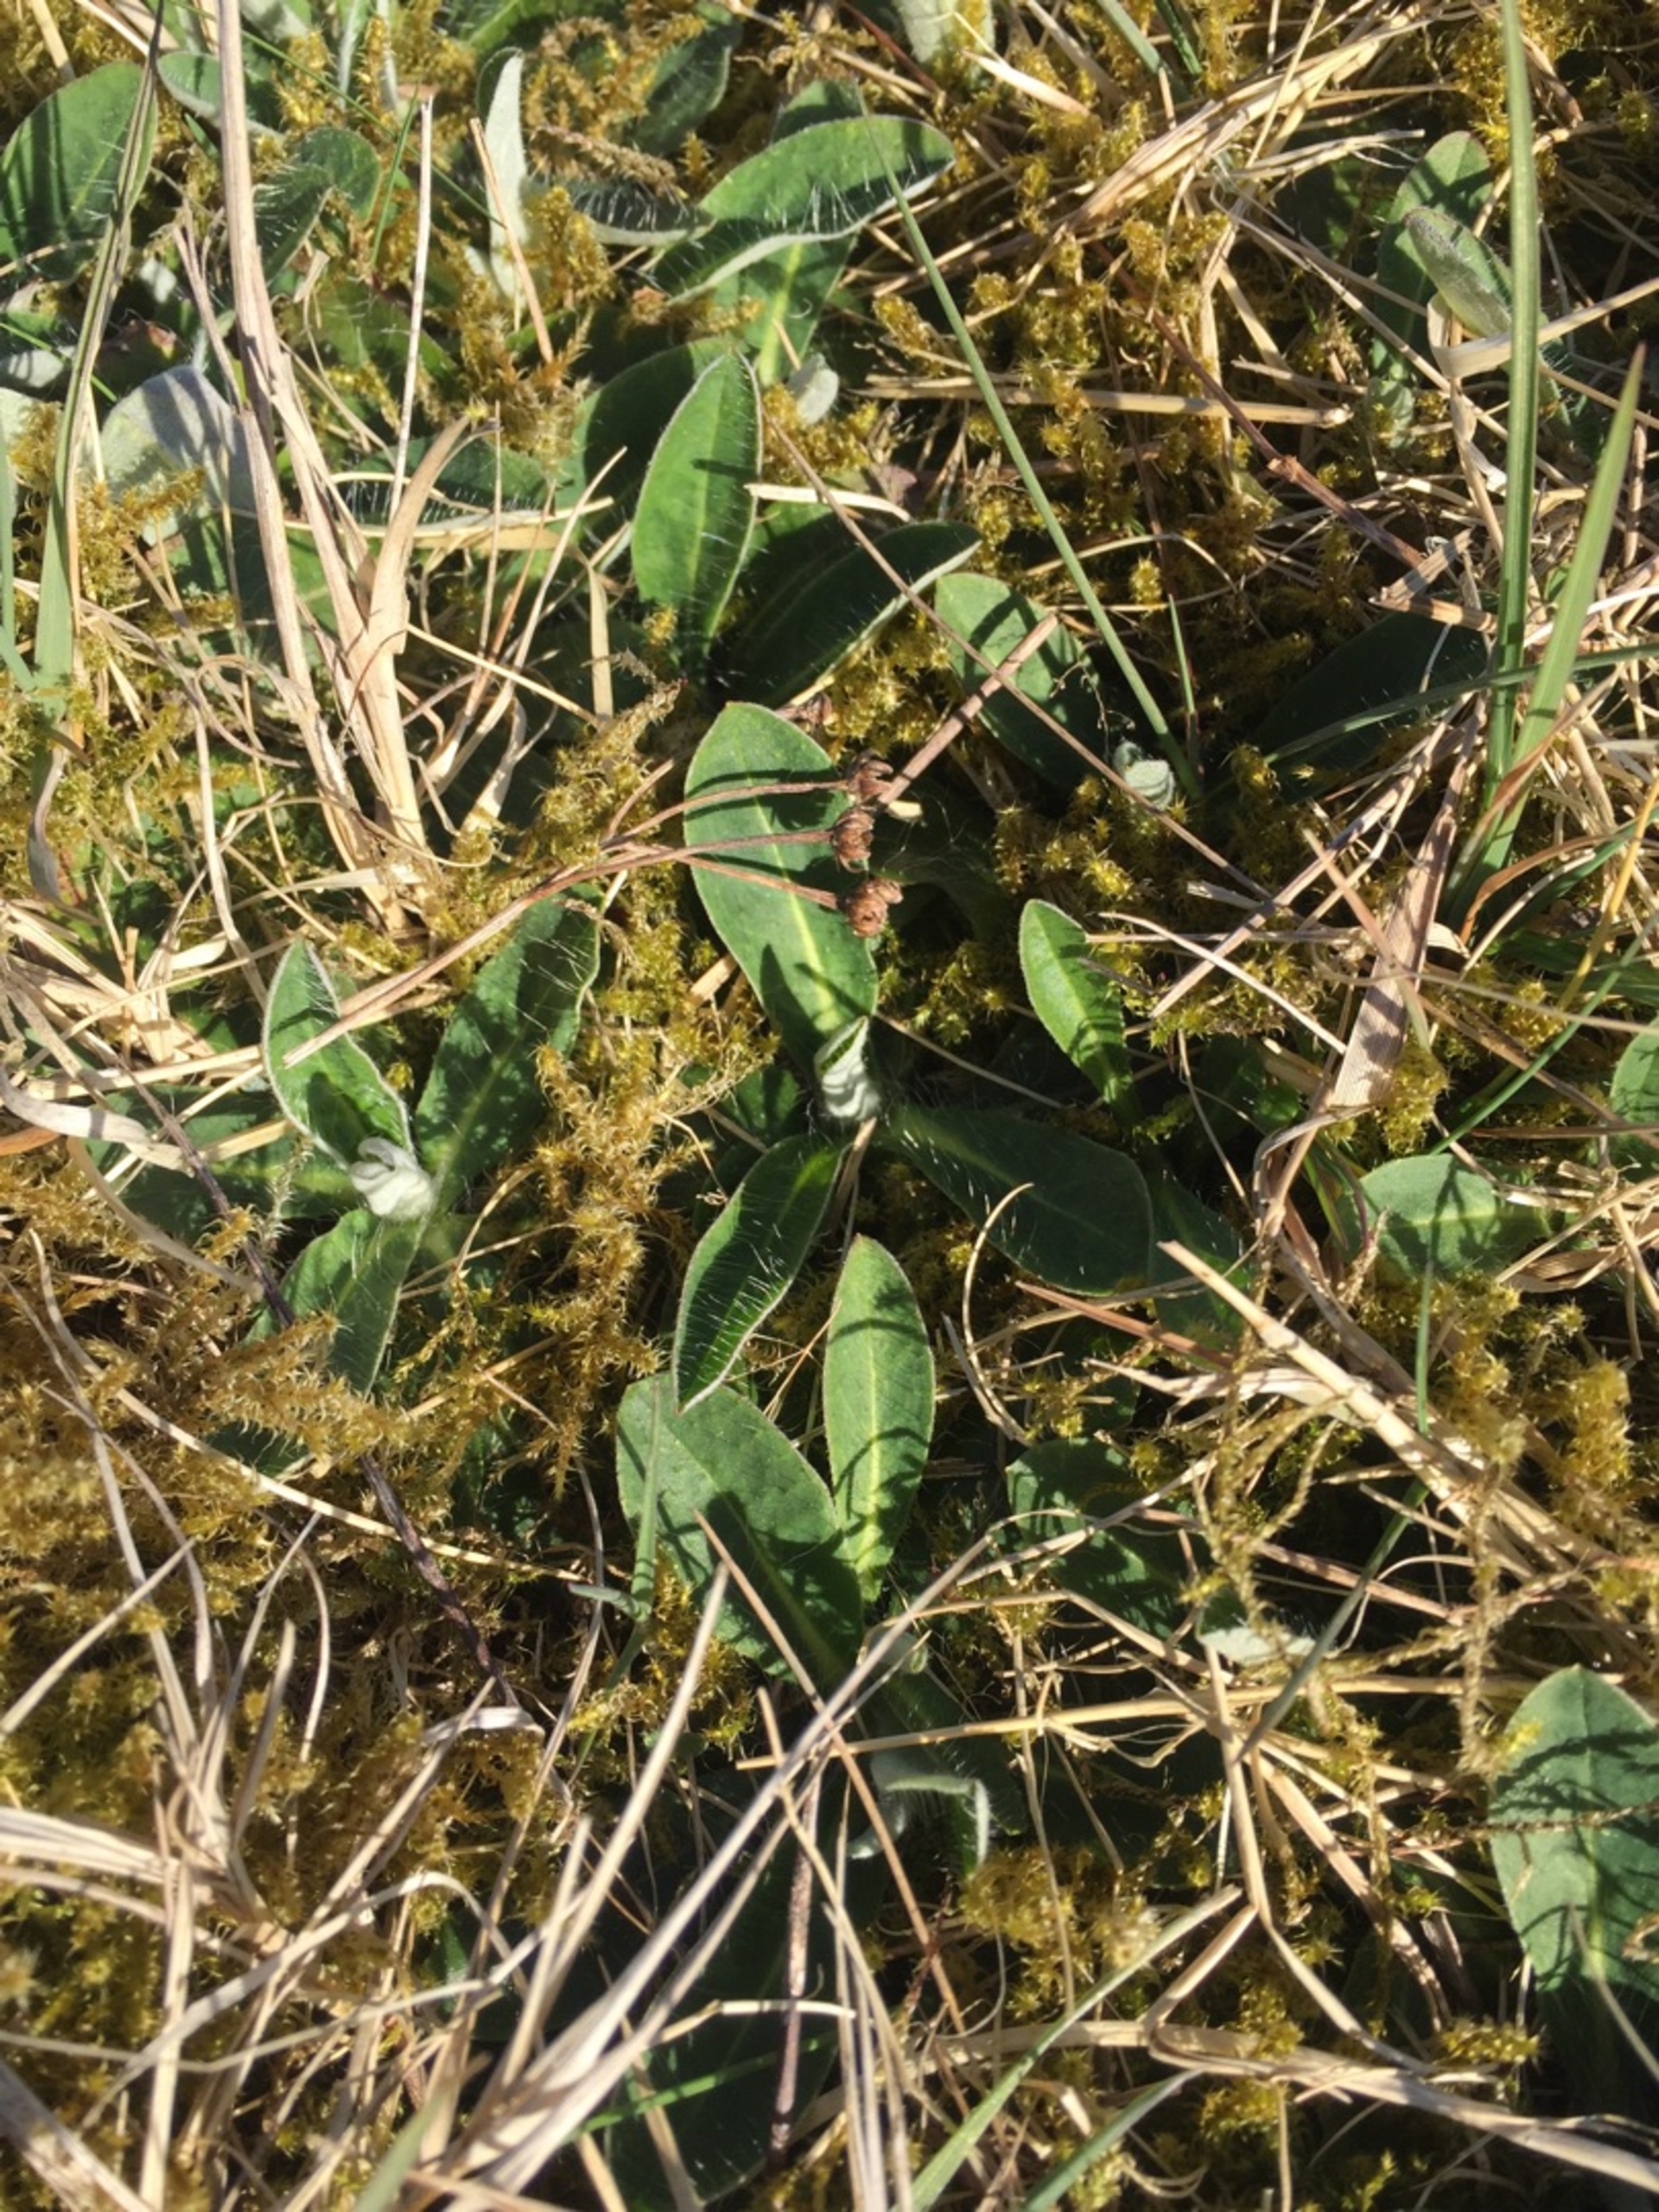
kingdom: Plantae
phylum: Tracheophyta
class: Magnoliopsida
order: Asterales
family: Asteraceae
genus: Pilosella
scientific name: Pilosella officinarum
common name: Håret høgeurt
